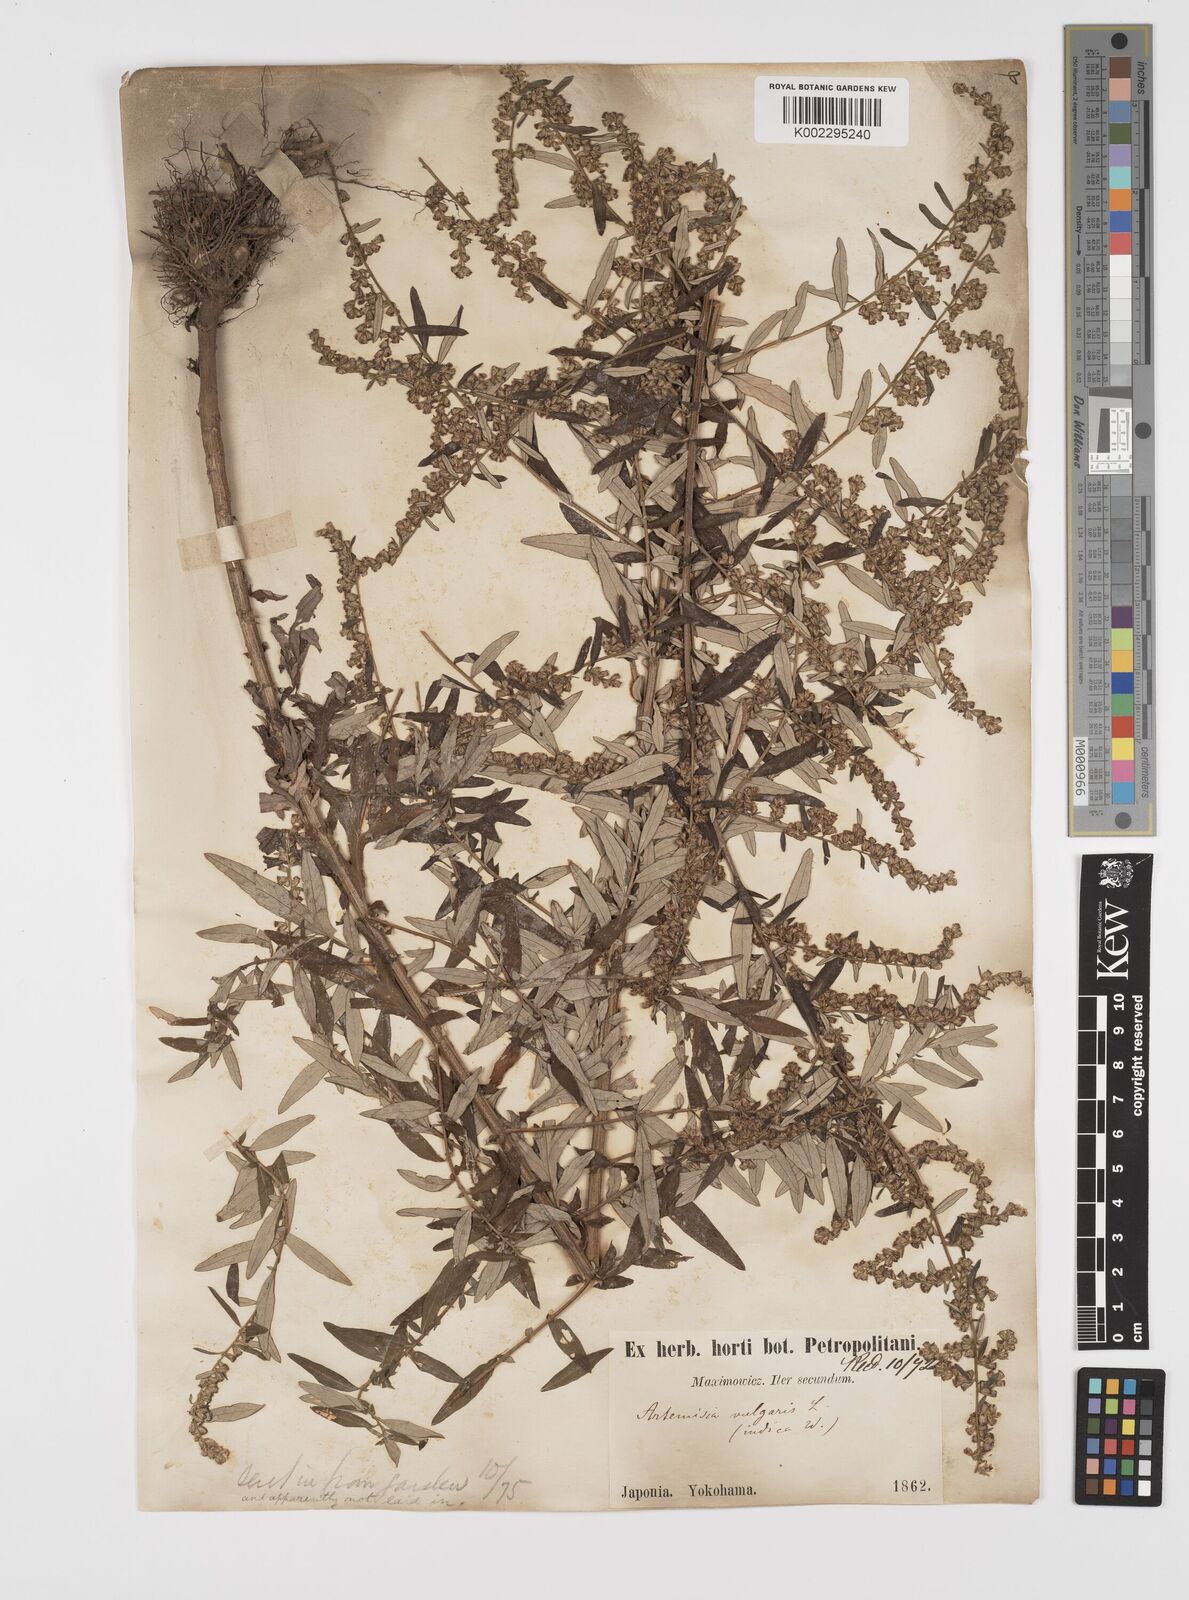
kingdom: Plantae
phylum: Tracheophyta
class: Magnoliopsida
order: Asterales
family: Asteraceae
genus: Artemisia
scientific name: Artemisia indica
